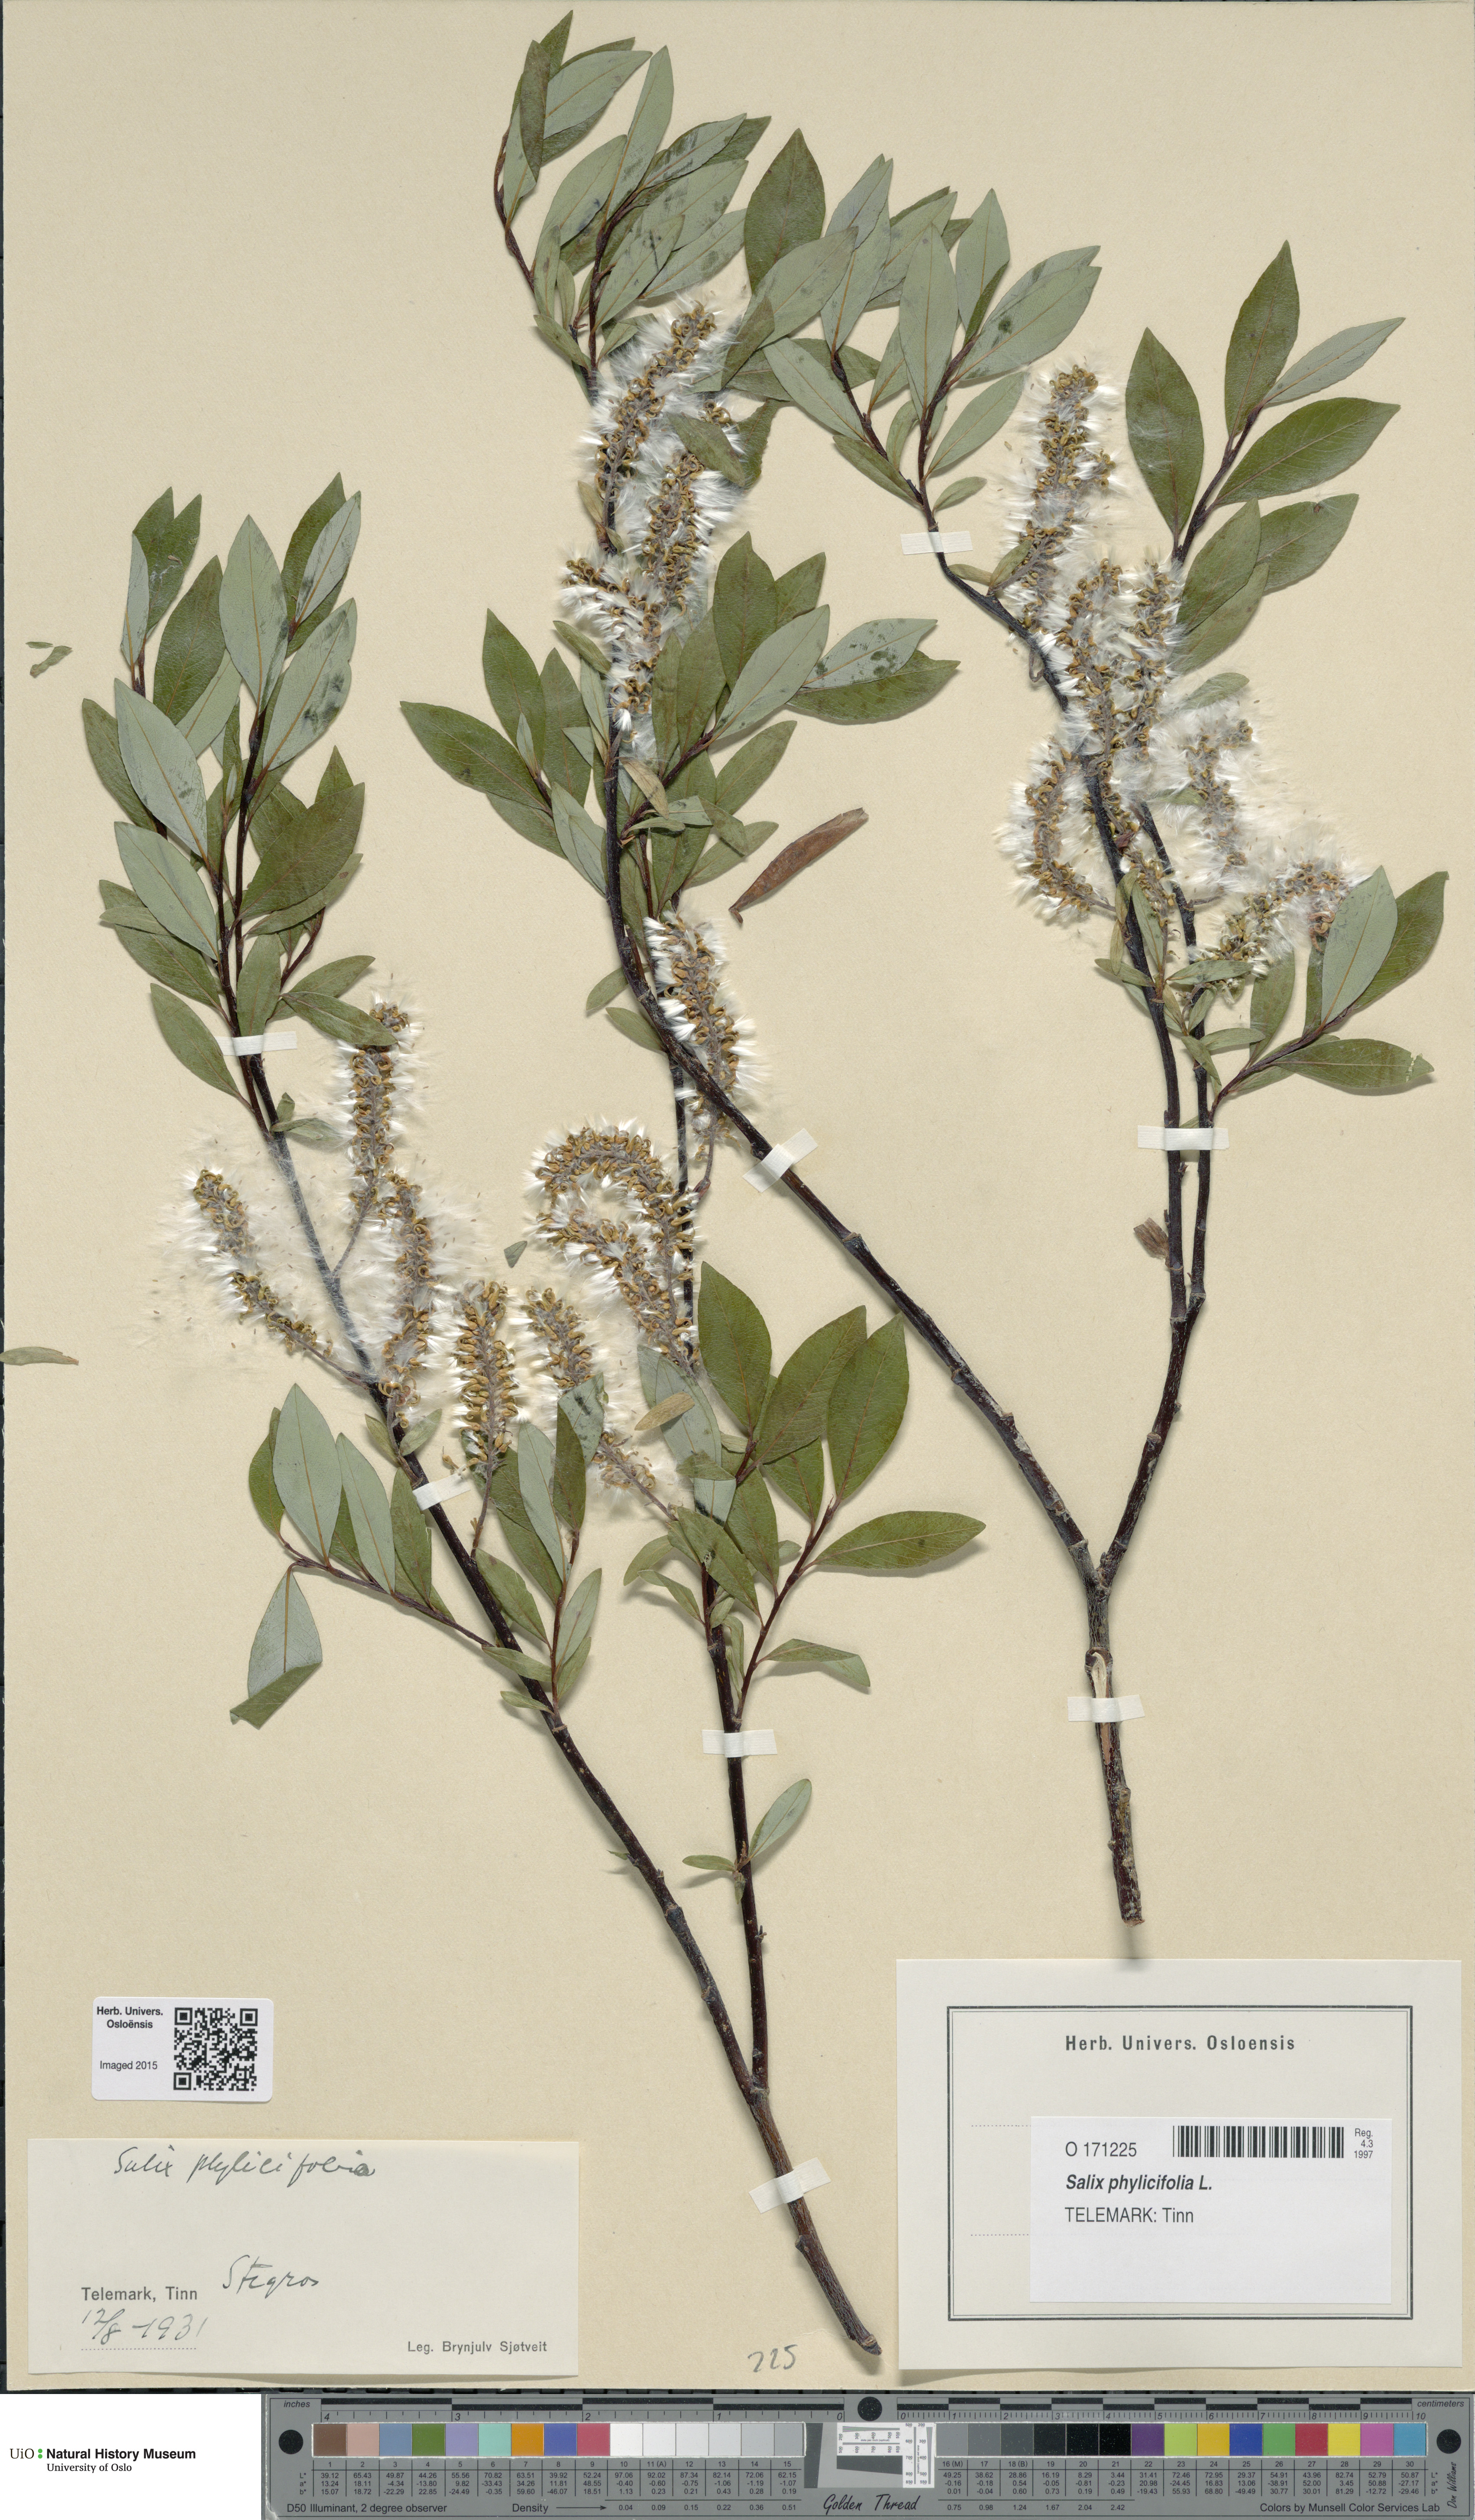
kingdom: Plantae
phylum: Tracheophyta
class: Magnoliopsida
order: Malpighiales
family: Salicaceae
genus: Salix
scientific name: Salix phylicifolia
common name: Tea-leaved willow
